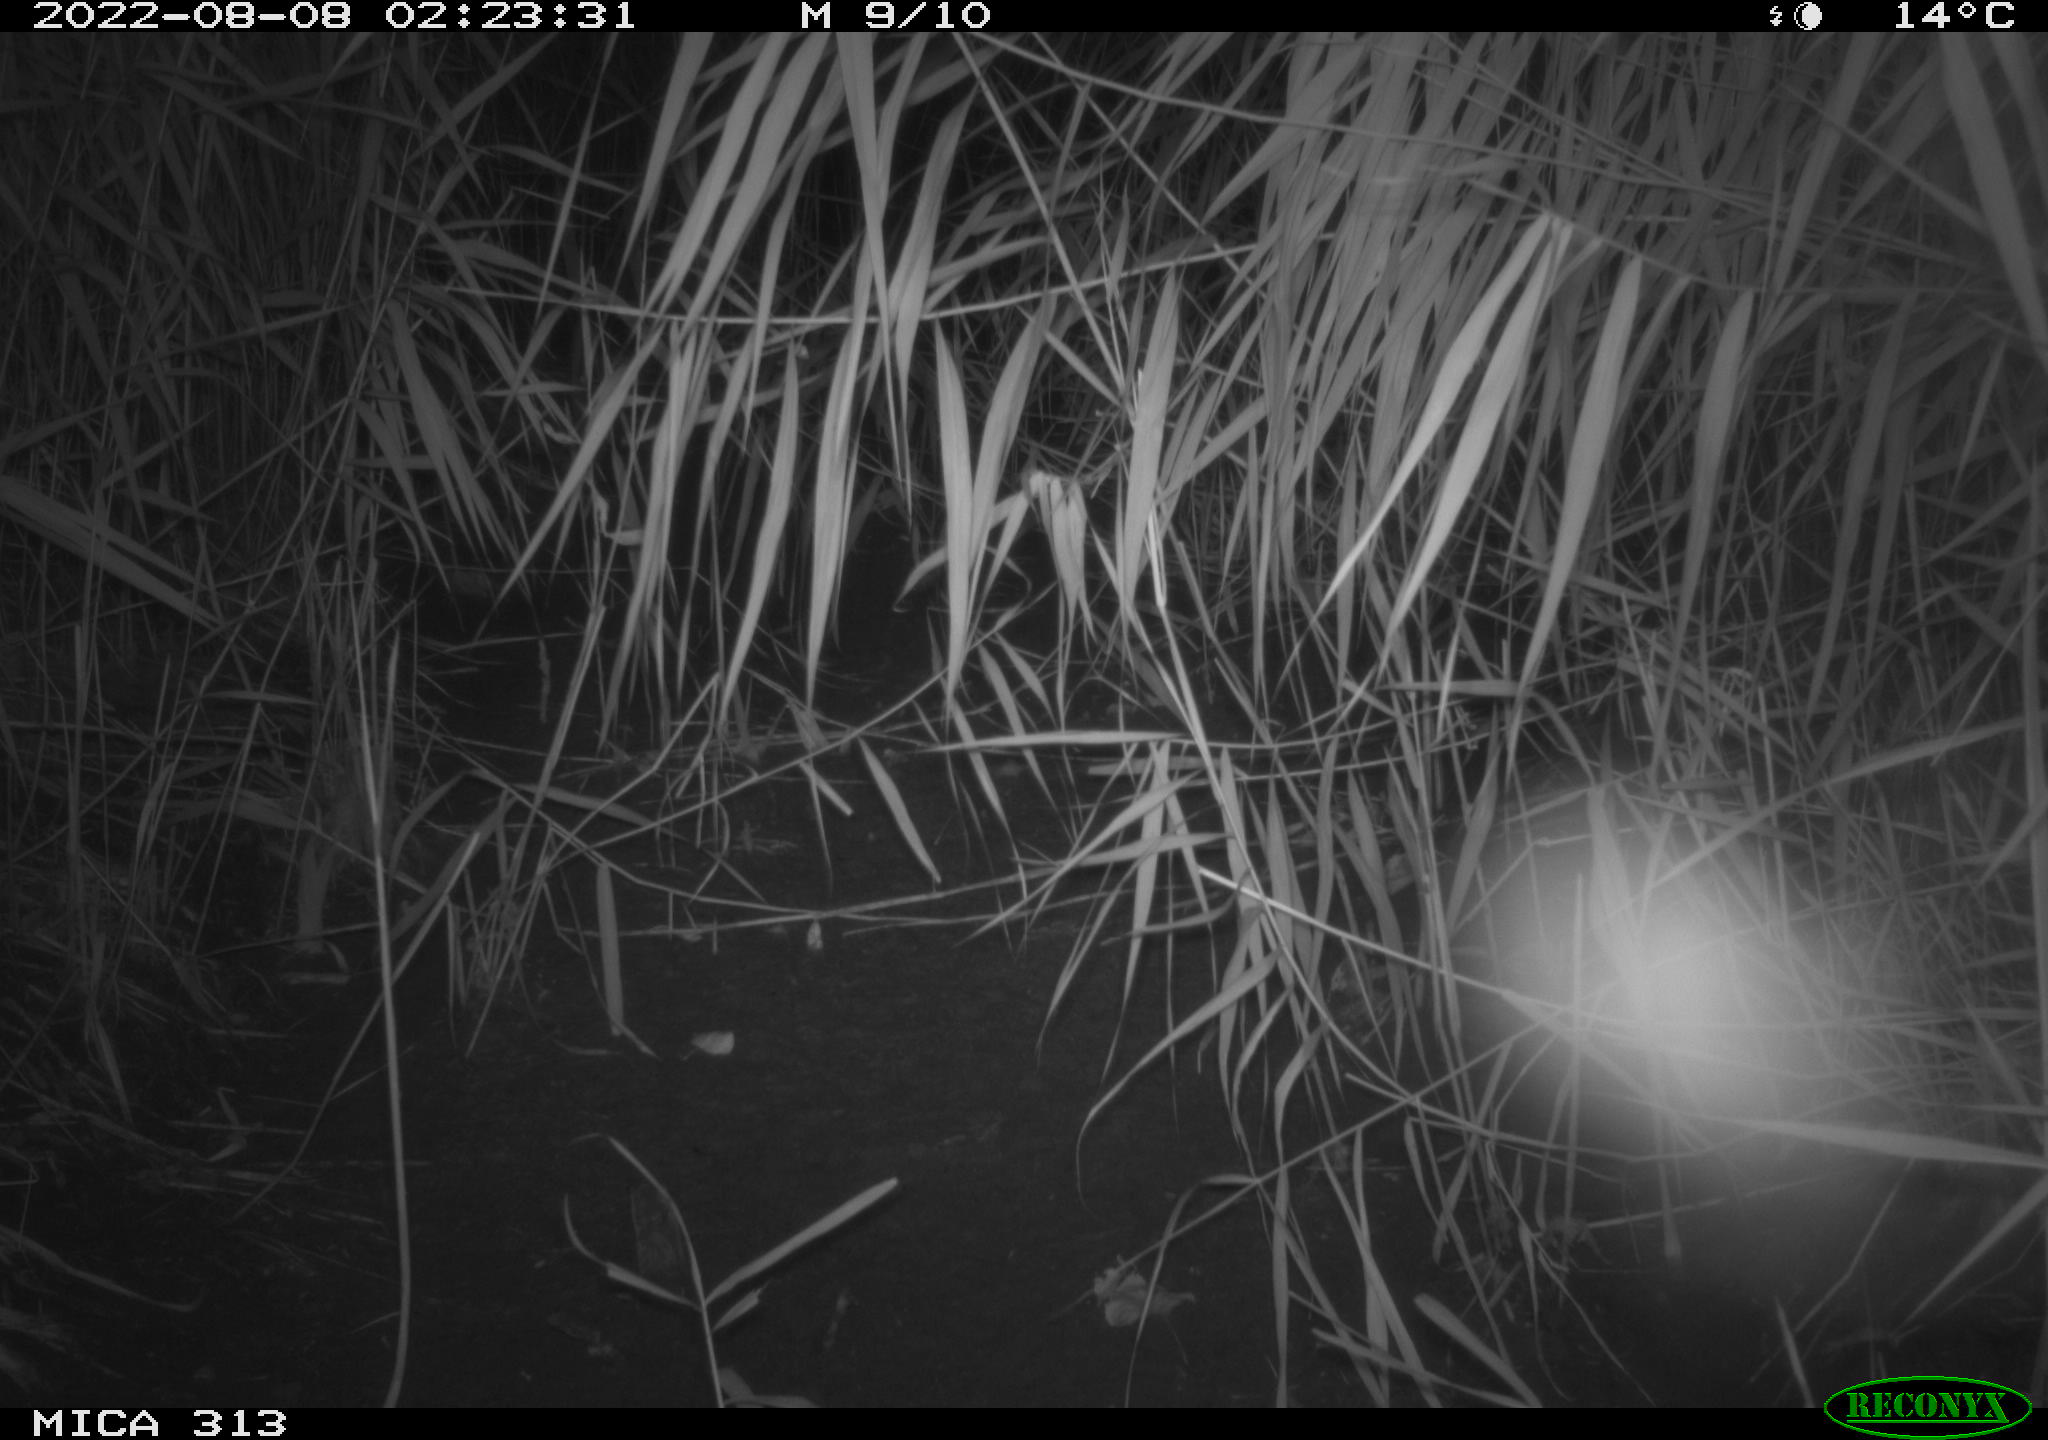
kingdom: Animalia
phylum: Chordata
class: Mammalia
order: Rodentia
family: Muridae
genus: Rattus
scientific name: Rattus norvegicus
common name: Brown rat
